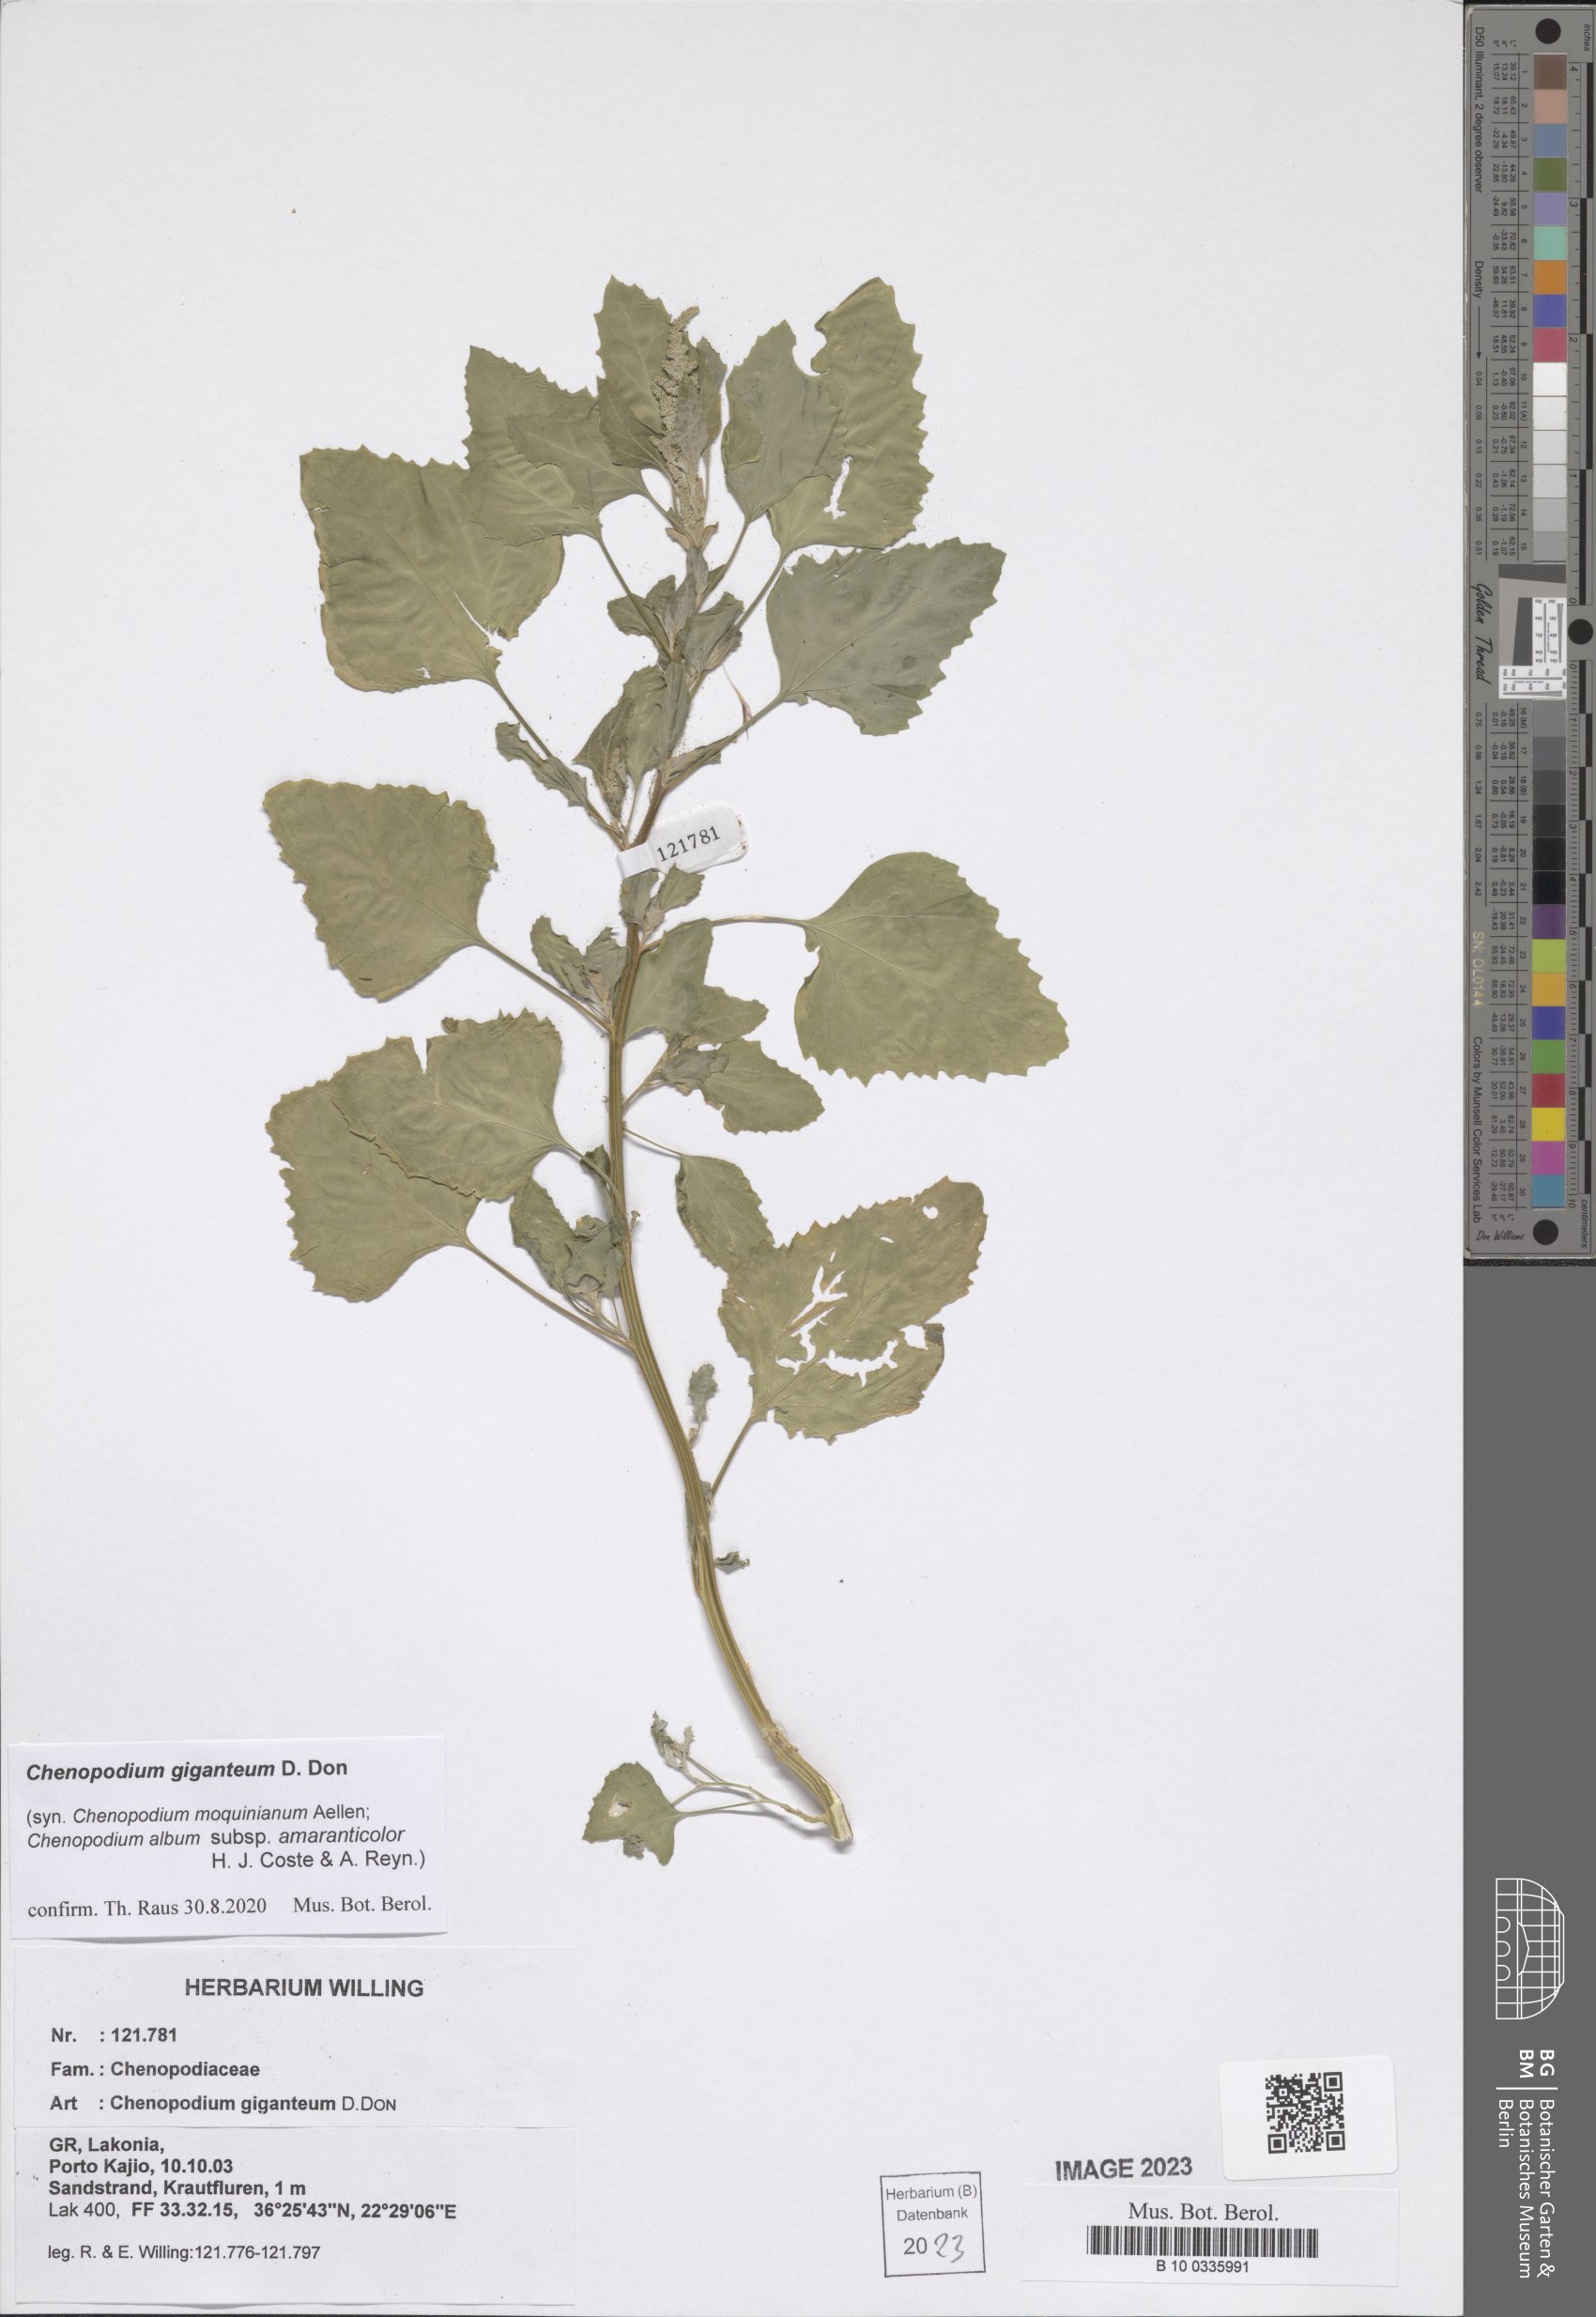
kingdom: Plantae
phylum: Tracheophyta
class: Magnoliopsida
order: Caryophyllales
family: Amaranthaceae
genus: Chenopodium
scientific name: Chenopodium giganteum
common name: Magentaspreen
